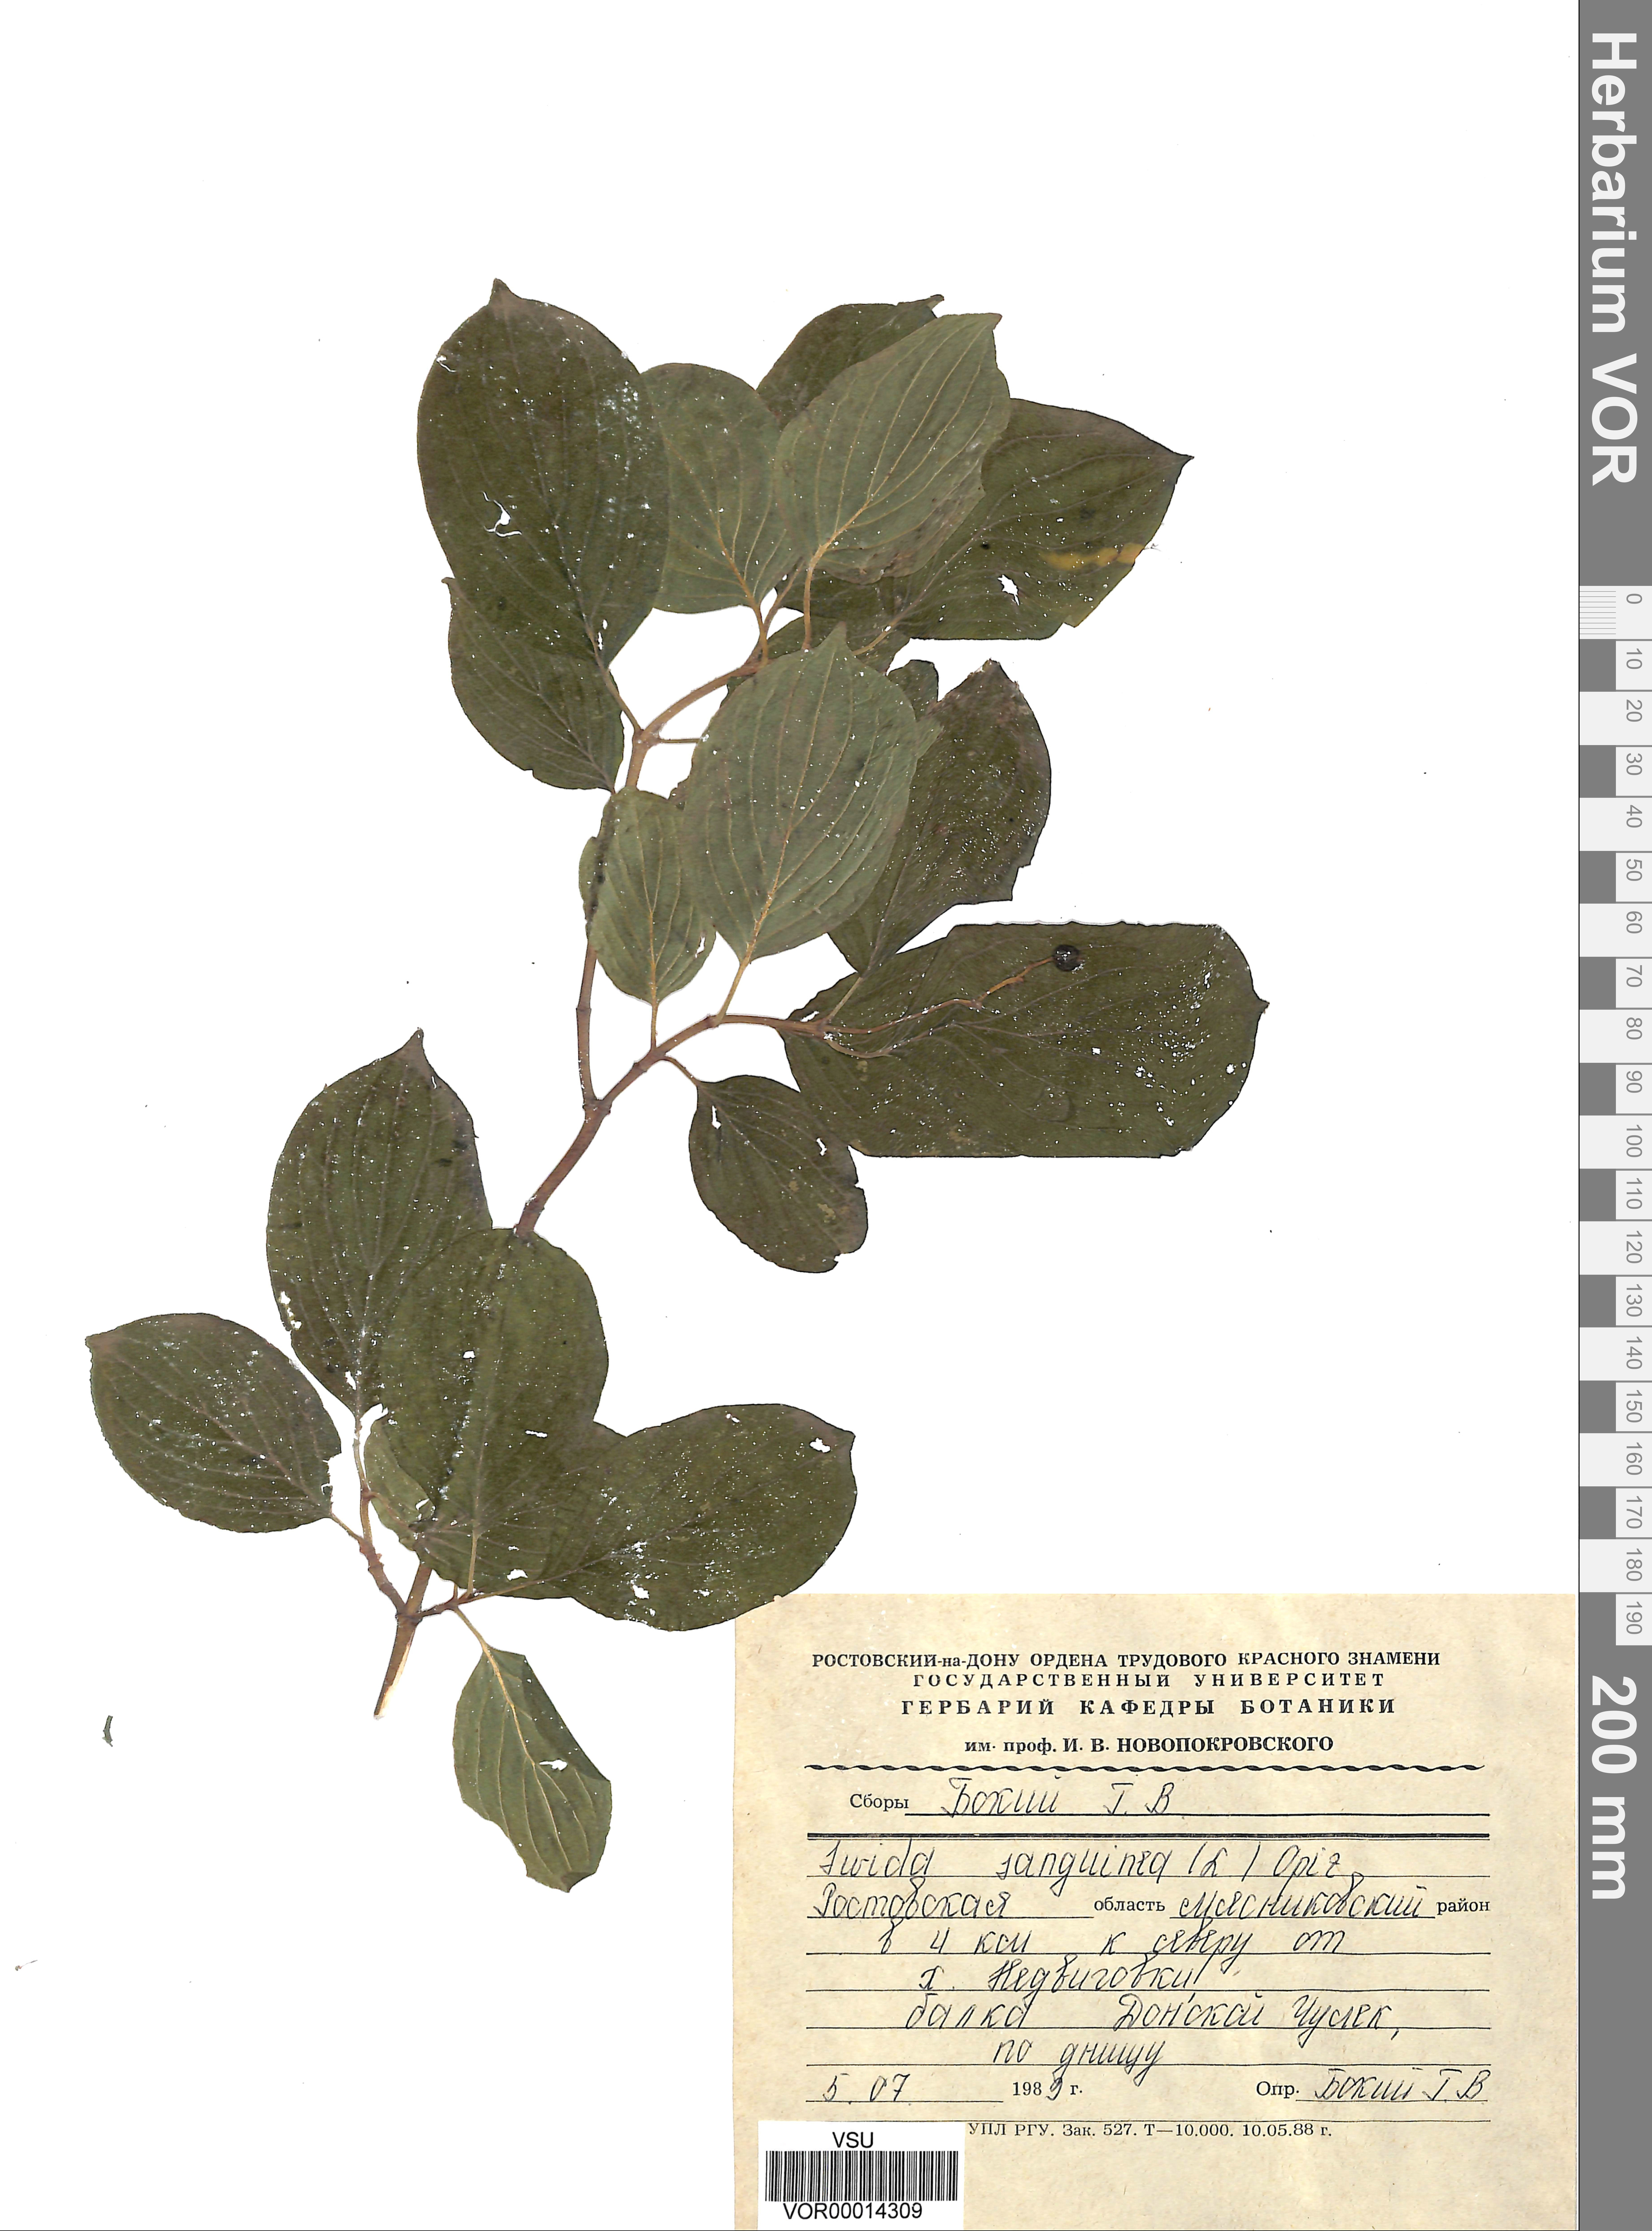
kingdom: Plantae
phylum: Tracheophyta
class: Magnoliopsida
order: Cornales
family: Cornaceae
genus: Cornus
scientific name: Cornus sanguinea
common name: Dogwood
